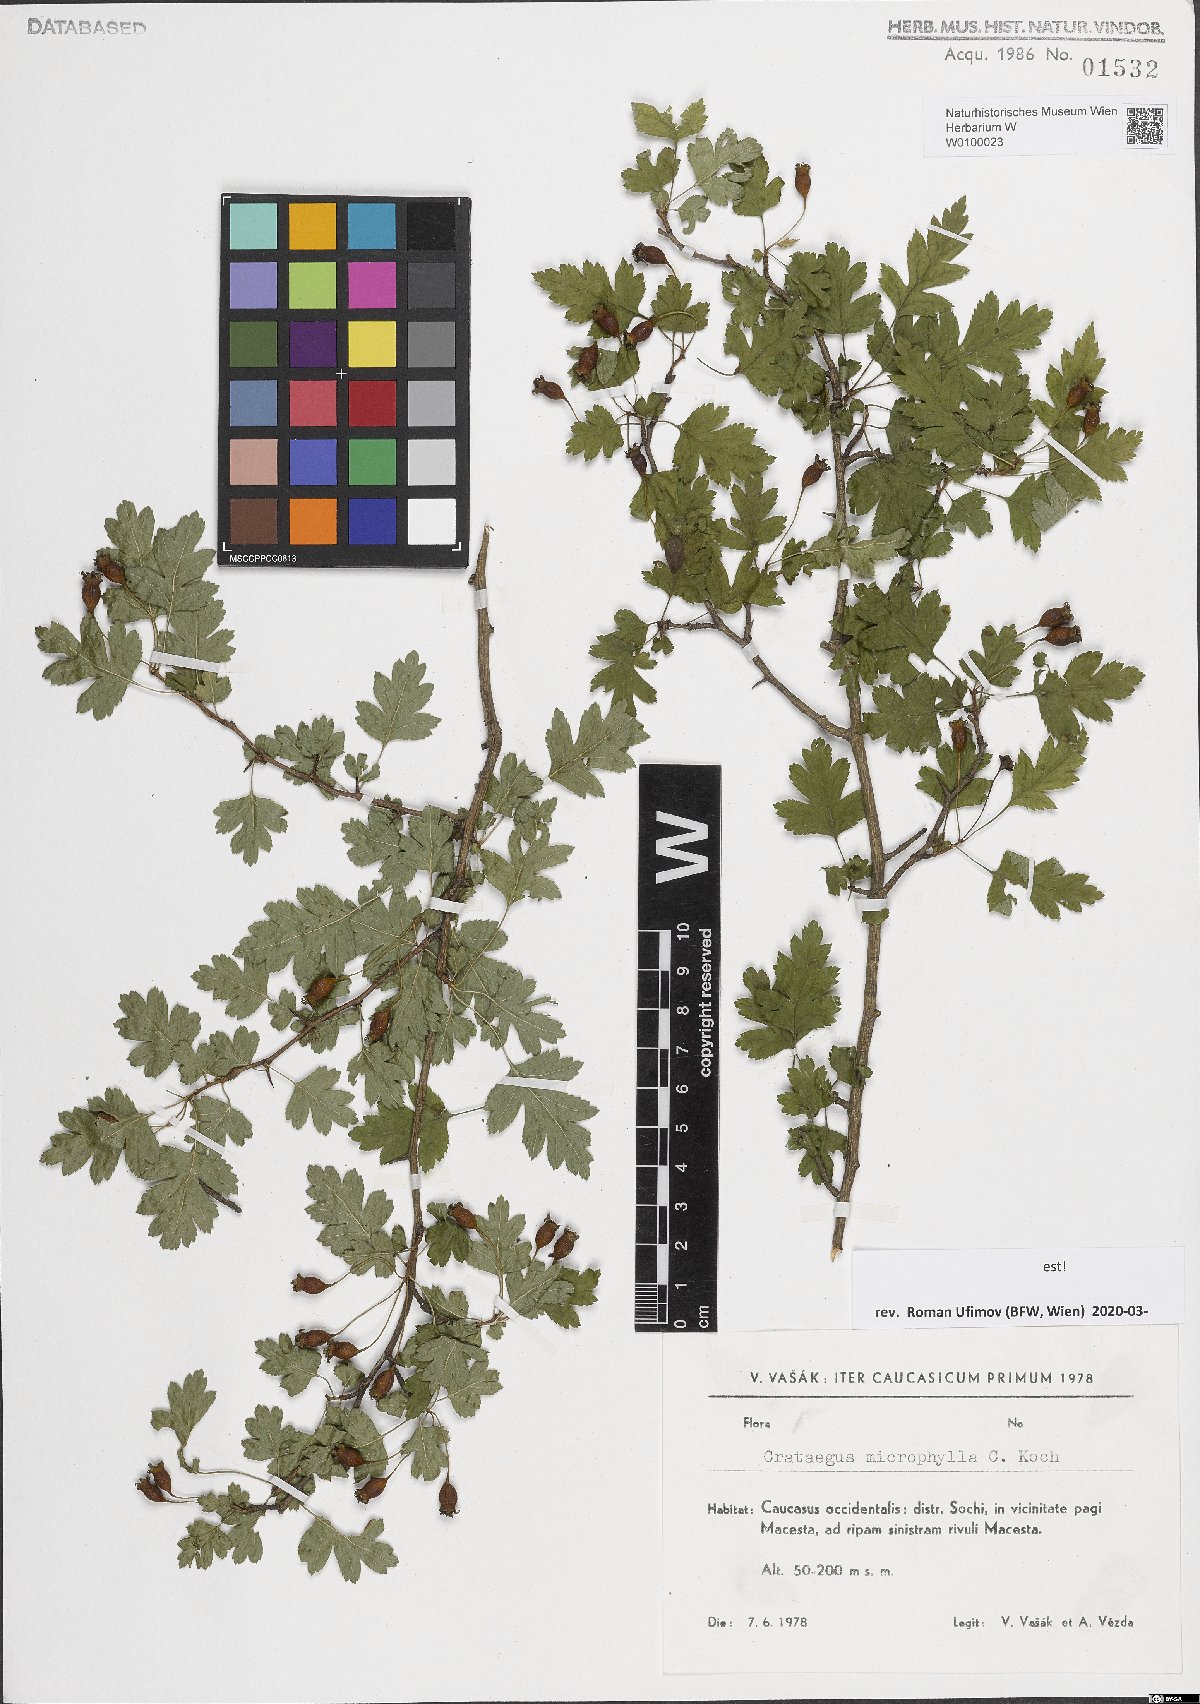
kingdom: Plantae
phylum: Tracheophyta
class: Magnoliopsida
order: Rosales
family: Rosaceae
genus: Crataegus
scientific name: Crataegus microphylla
